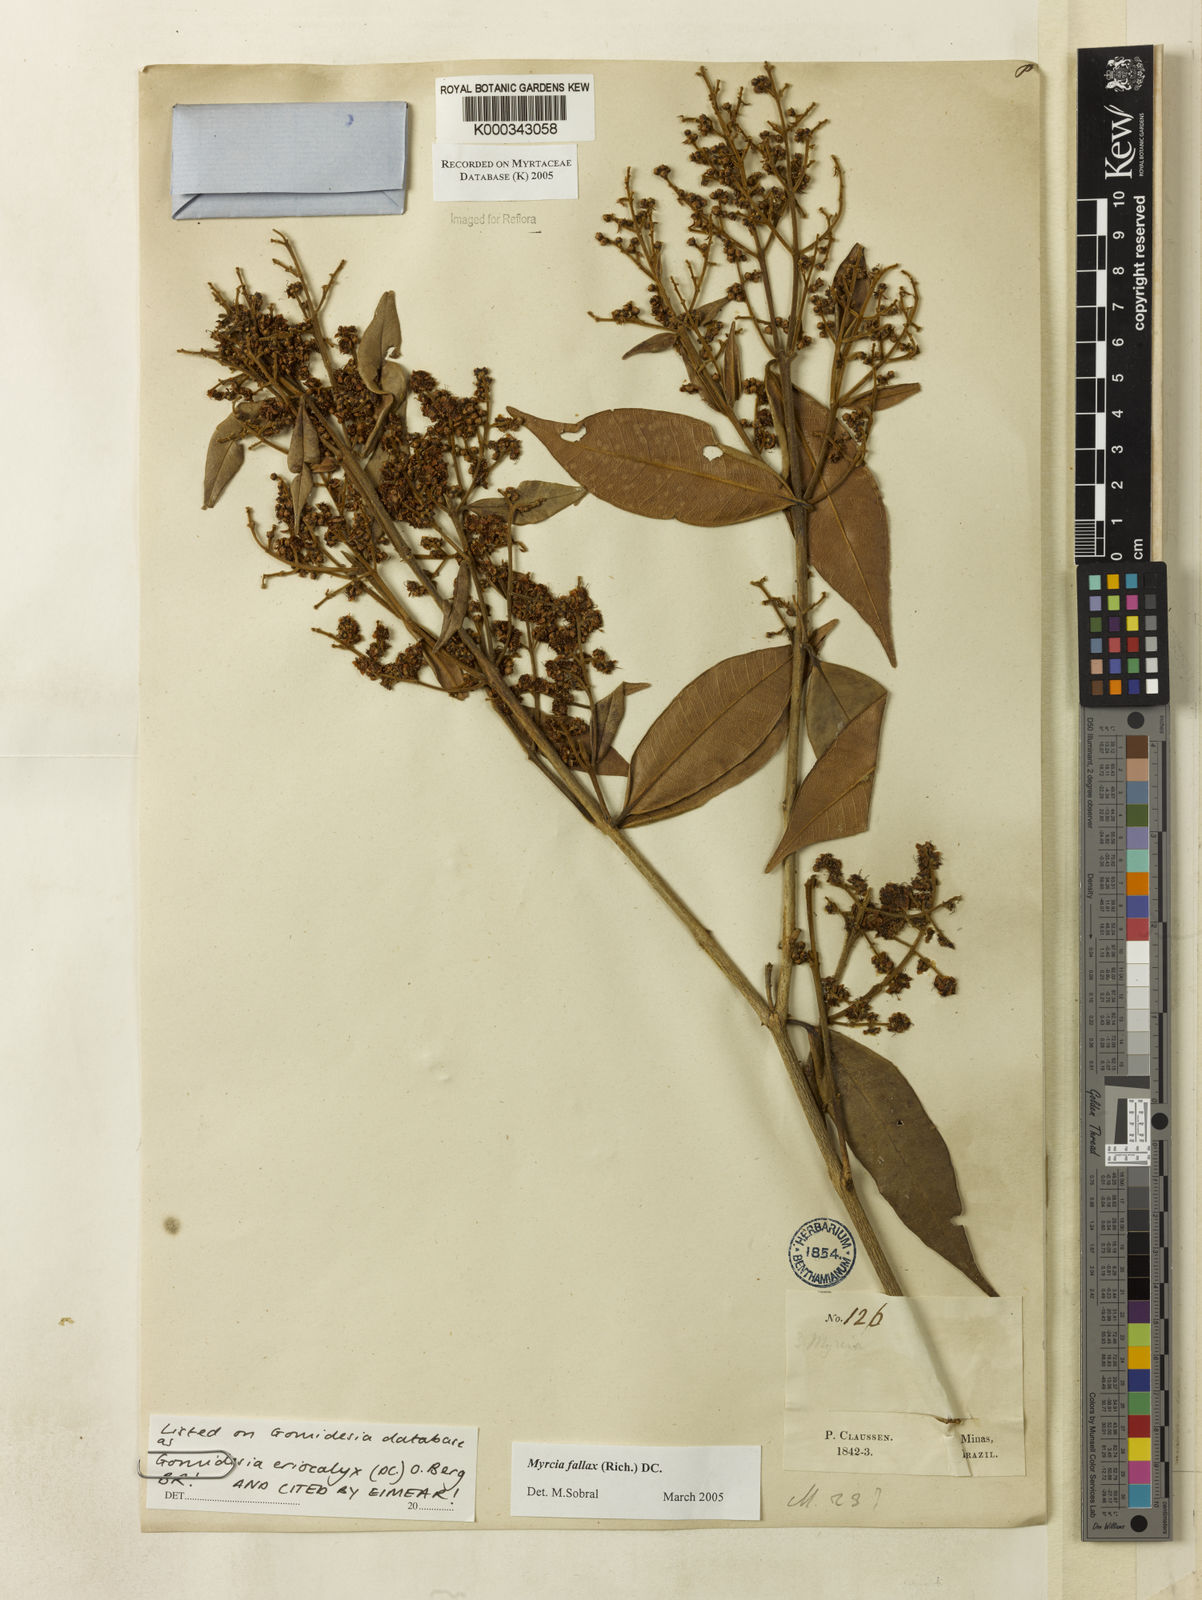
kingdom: Plantae
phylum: Tracheophyta
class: Magnoliopsida
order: Myrtales
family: Myrtaceae
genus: Myrcia
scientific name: Myrcia eriocalyx
